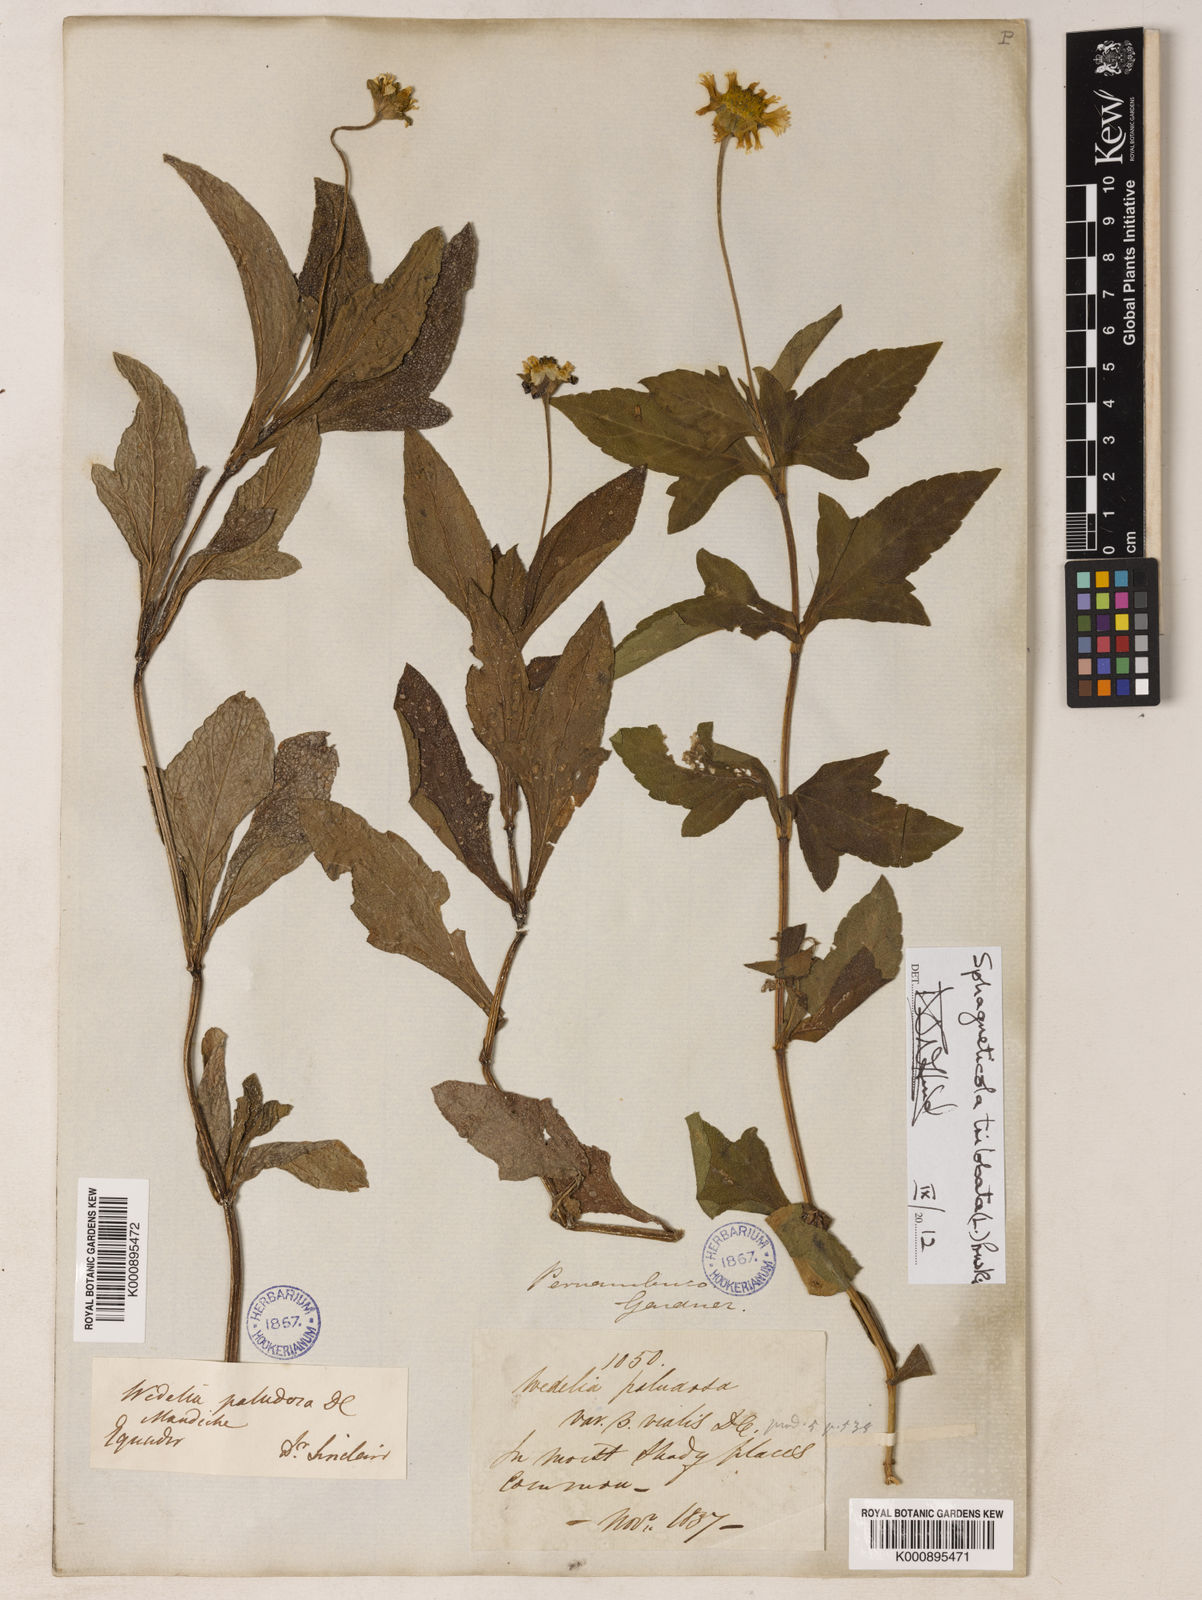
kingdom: Plantae
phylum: Tracheophyta
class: Magnoliopsida
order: Asterales
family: Asteraceae
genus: Sphagneticola
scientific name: Sphagneticola trilobata
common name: Bay biscayne creeping-oxeye
